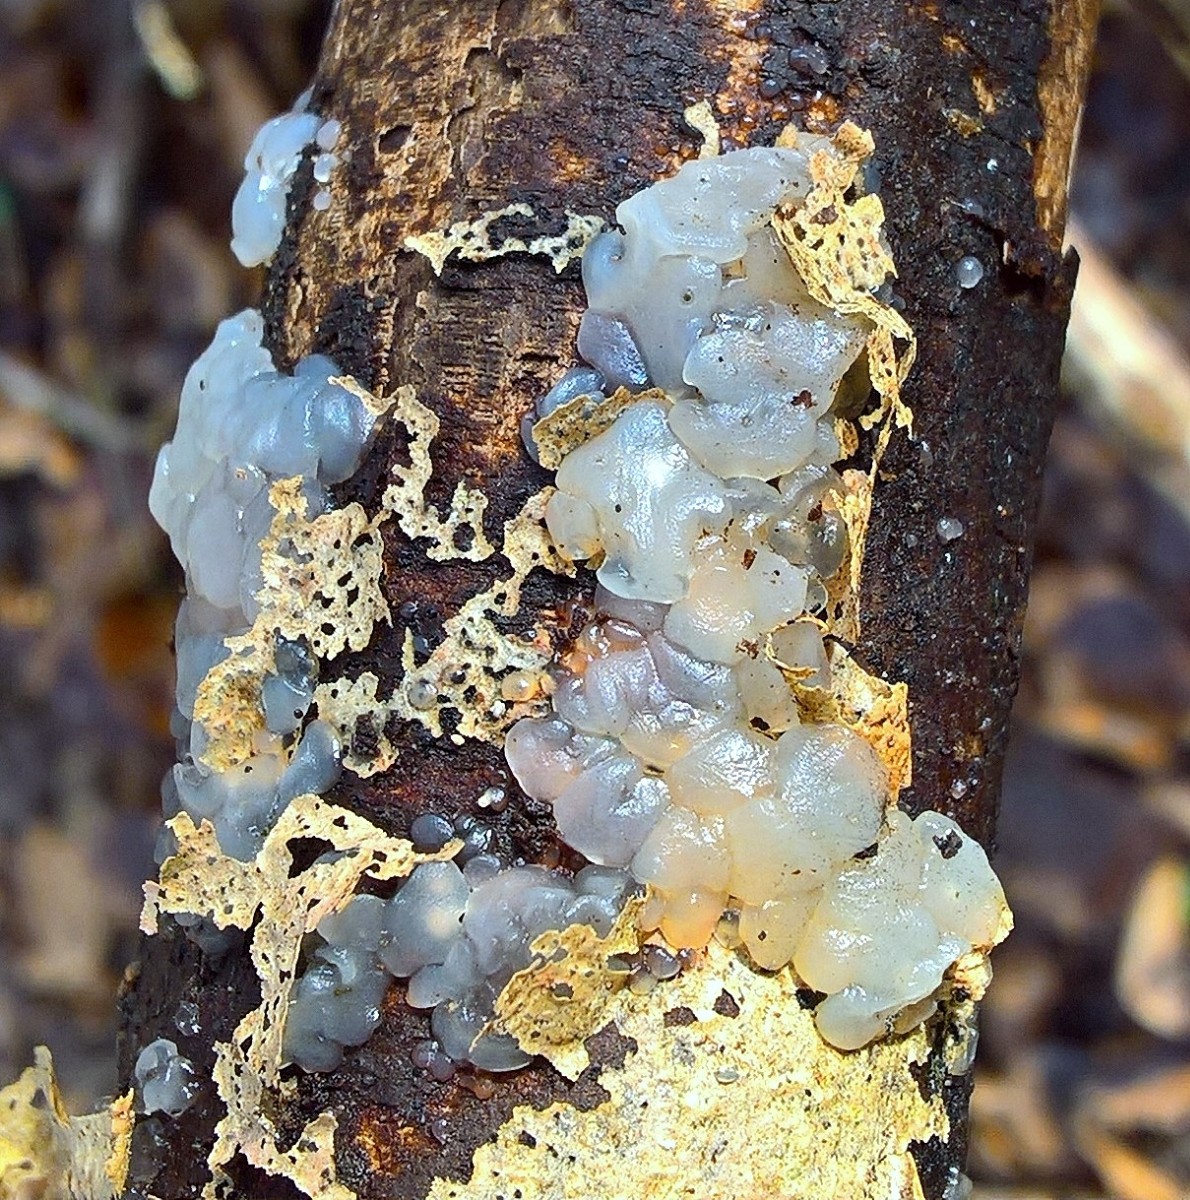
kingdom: Fungi
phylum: Basidiomycota
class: Agaricomycetes
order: Auriculariales
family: Hyaloriaceae
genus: Myxarium
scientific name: Myxarium nucleatum
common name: klar bævretop
